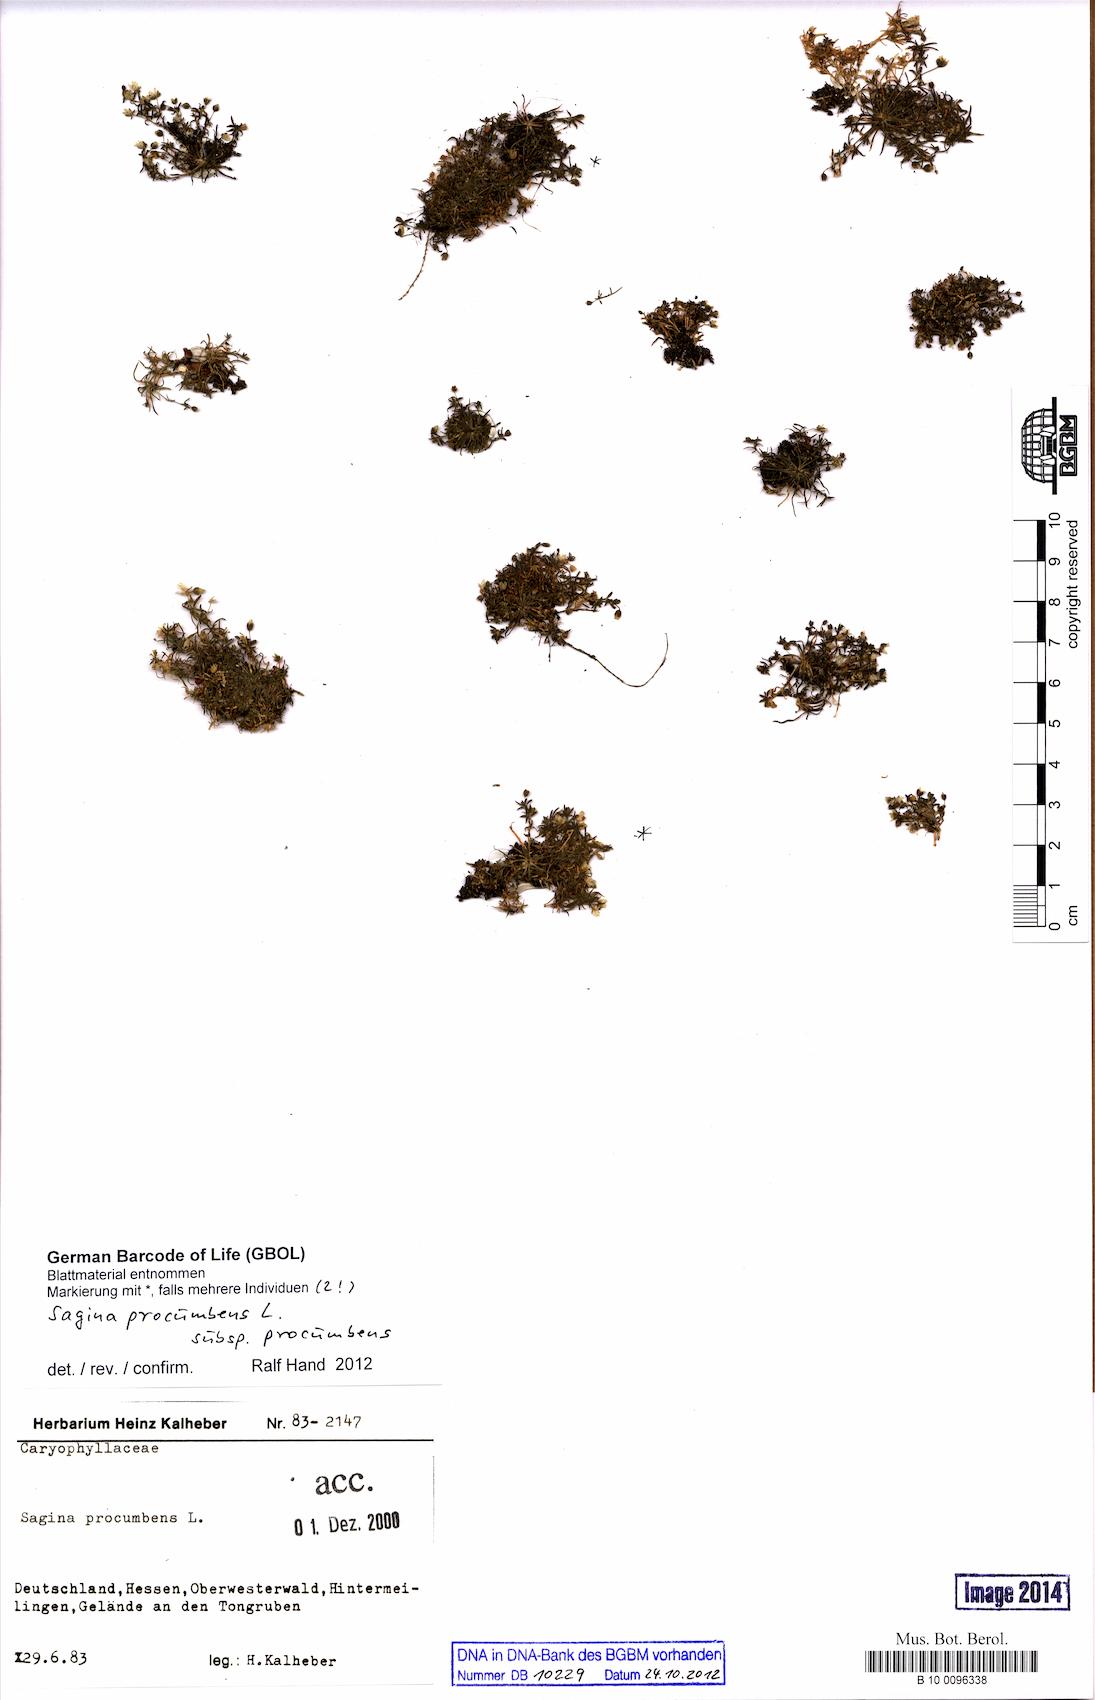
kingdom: Plantae
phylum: Tracheophyta
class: Magnoliopsida
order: Caryophyllales
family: Caryophyllaceae
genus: Sagina
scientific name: Sagina procumbens
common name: Procumbent pearlwort
